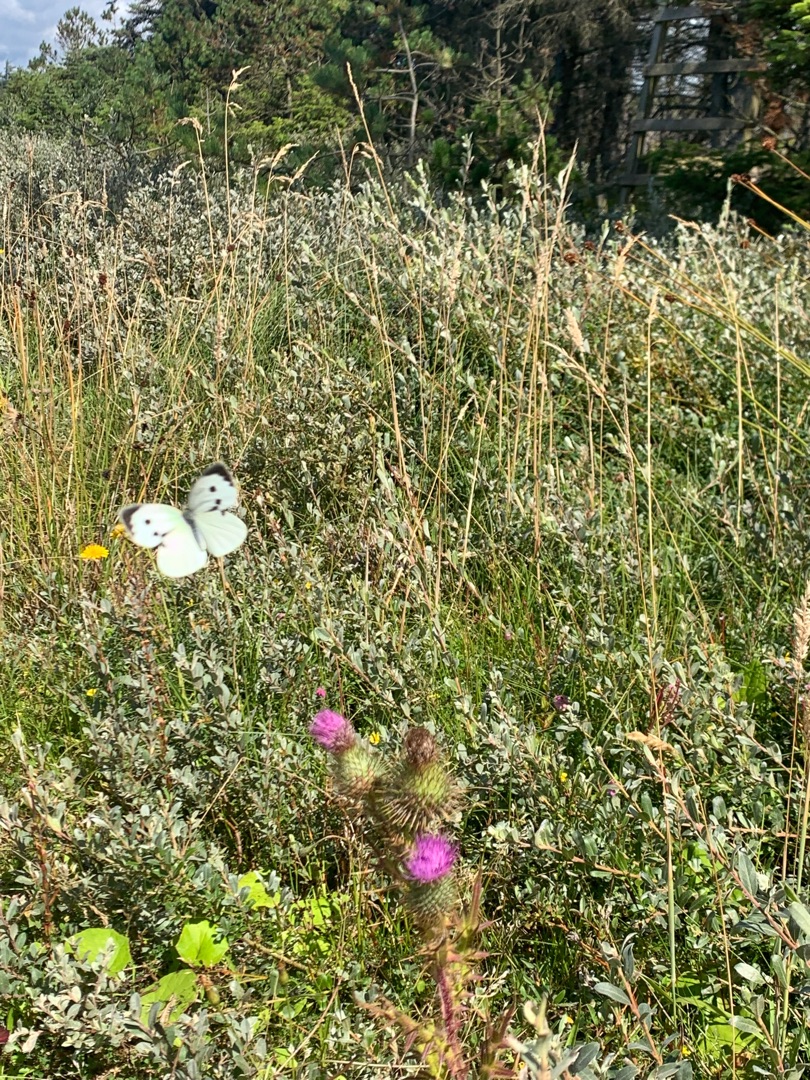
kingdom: Plantae
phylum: Tracheophyta
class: Magnoliopsida
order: Asterales
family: Asteraceae
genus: Cirsium
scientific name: Cirsium vulgare
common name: Horse-tidsel
